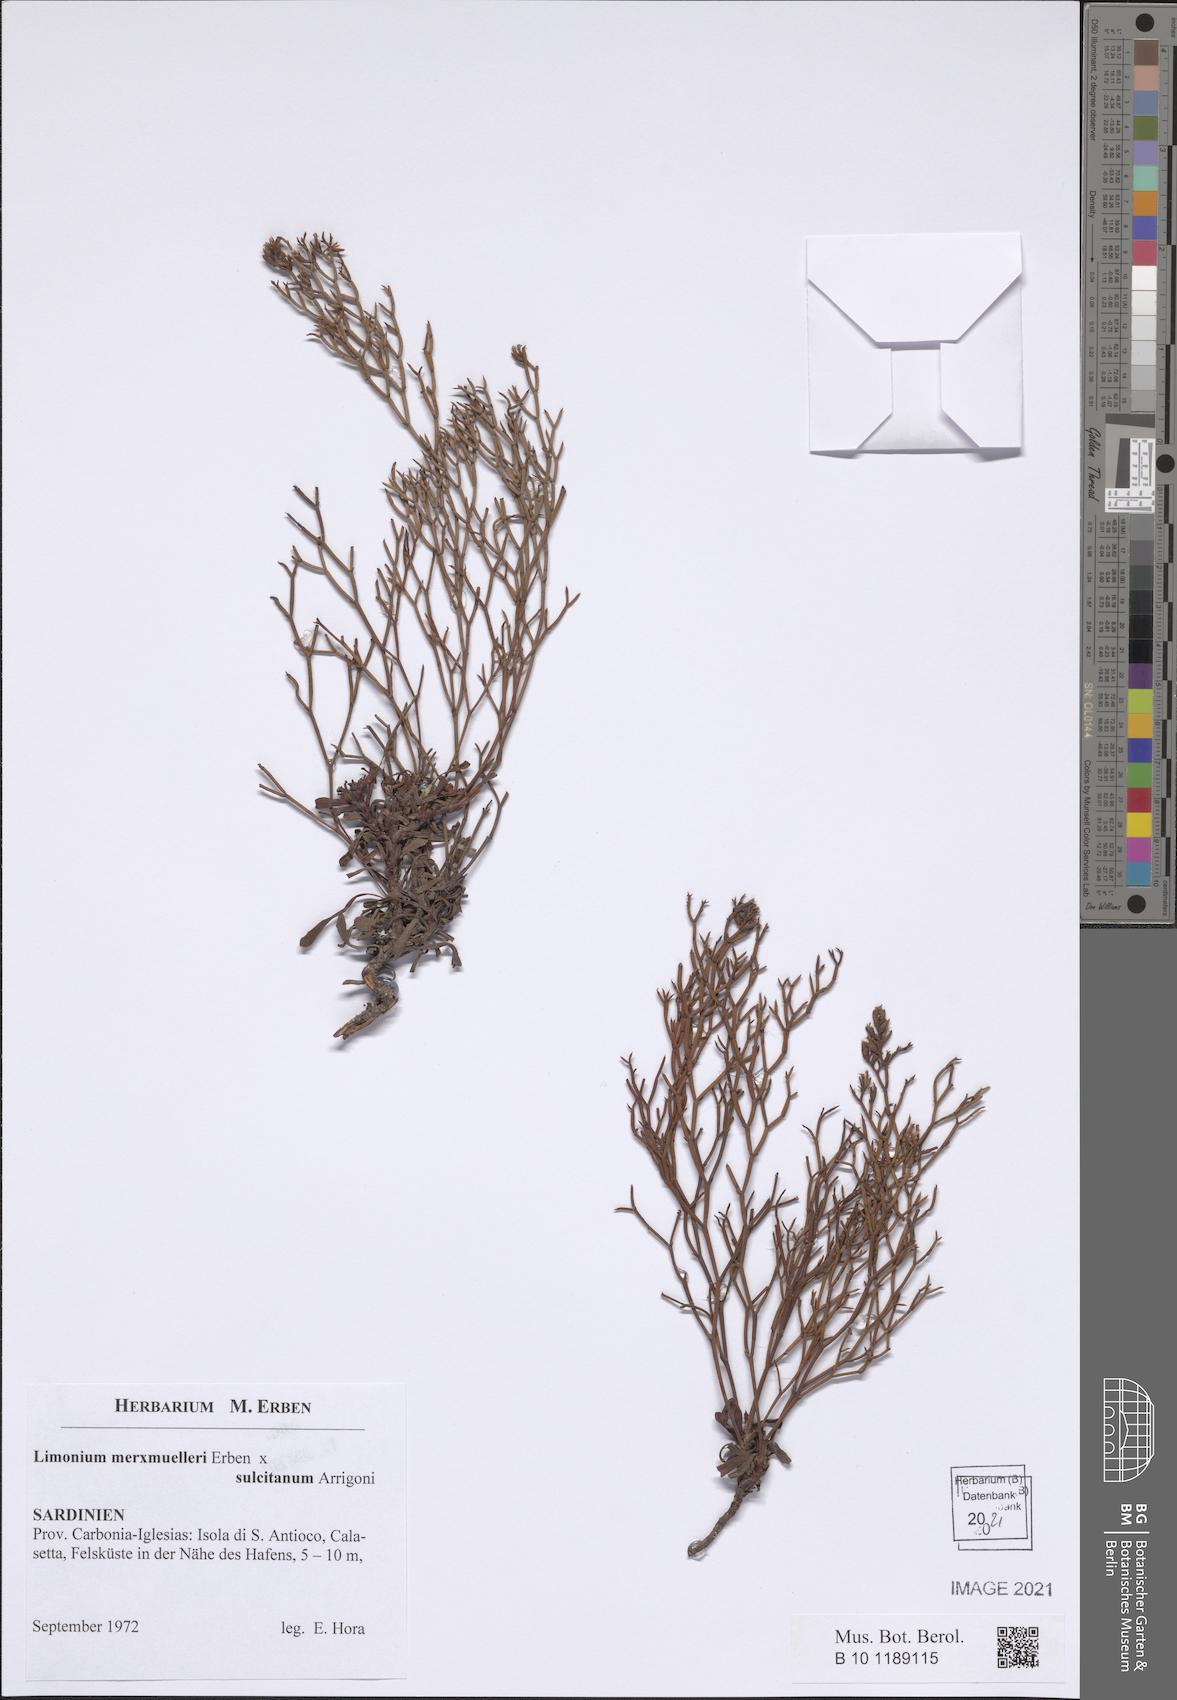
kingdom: Plantae
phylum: Tracheophyta
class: Magnoliopsida
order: Caryophyllales
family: Plumbaginaceae
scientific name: Plumbaginaceae
